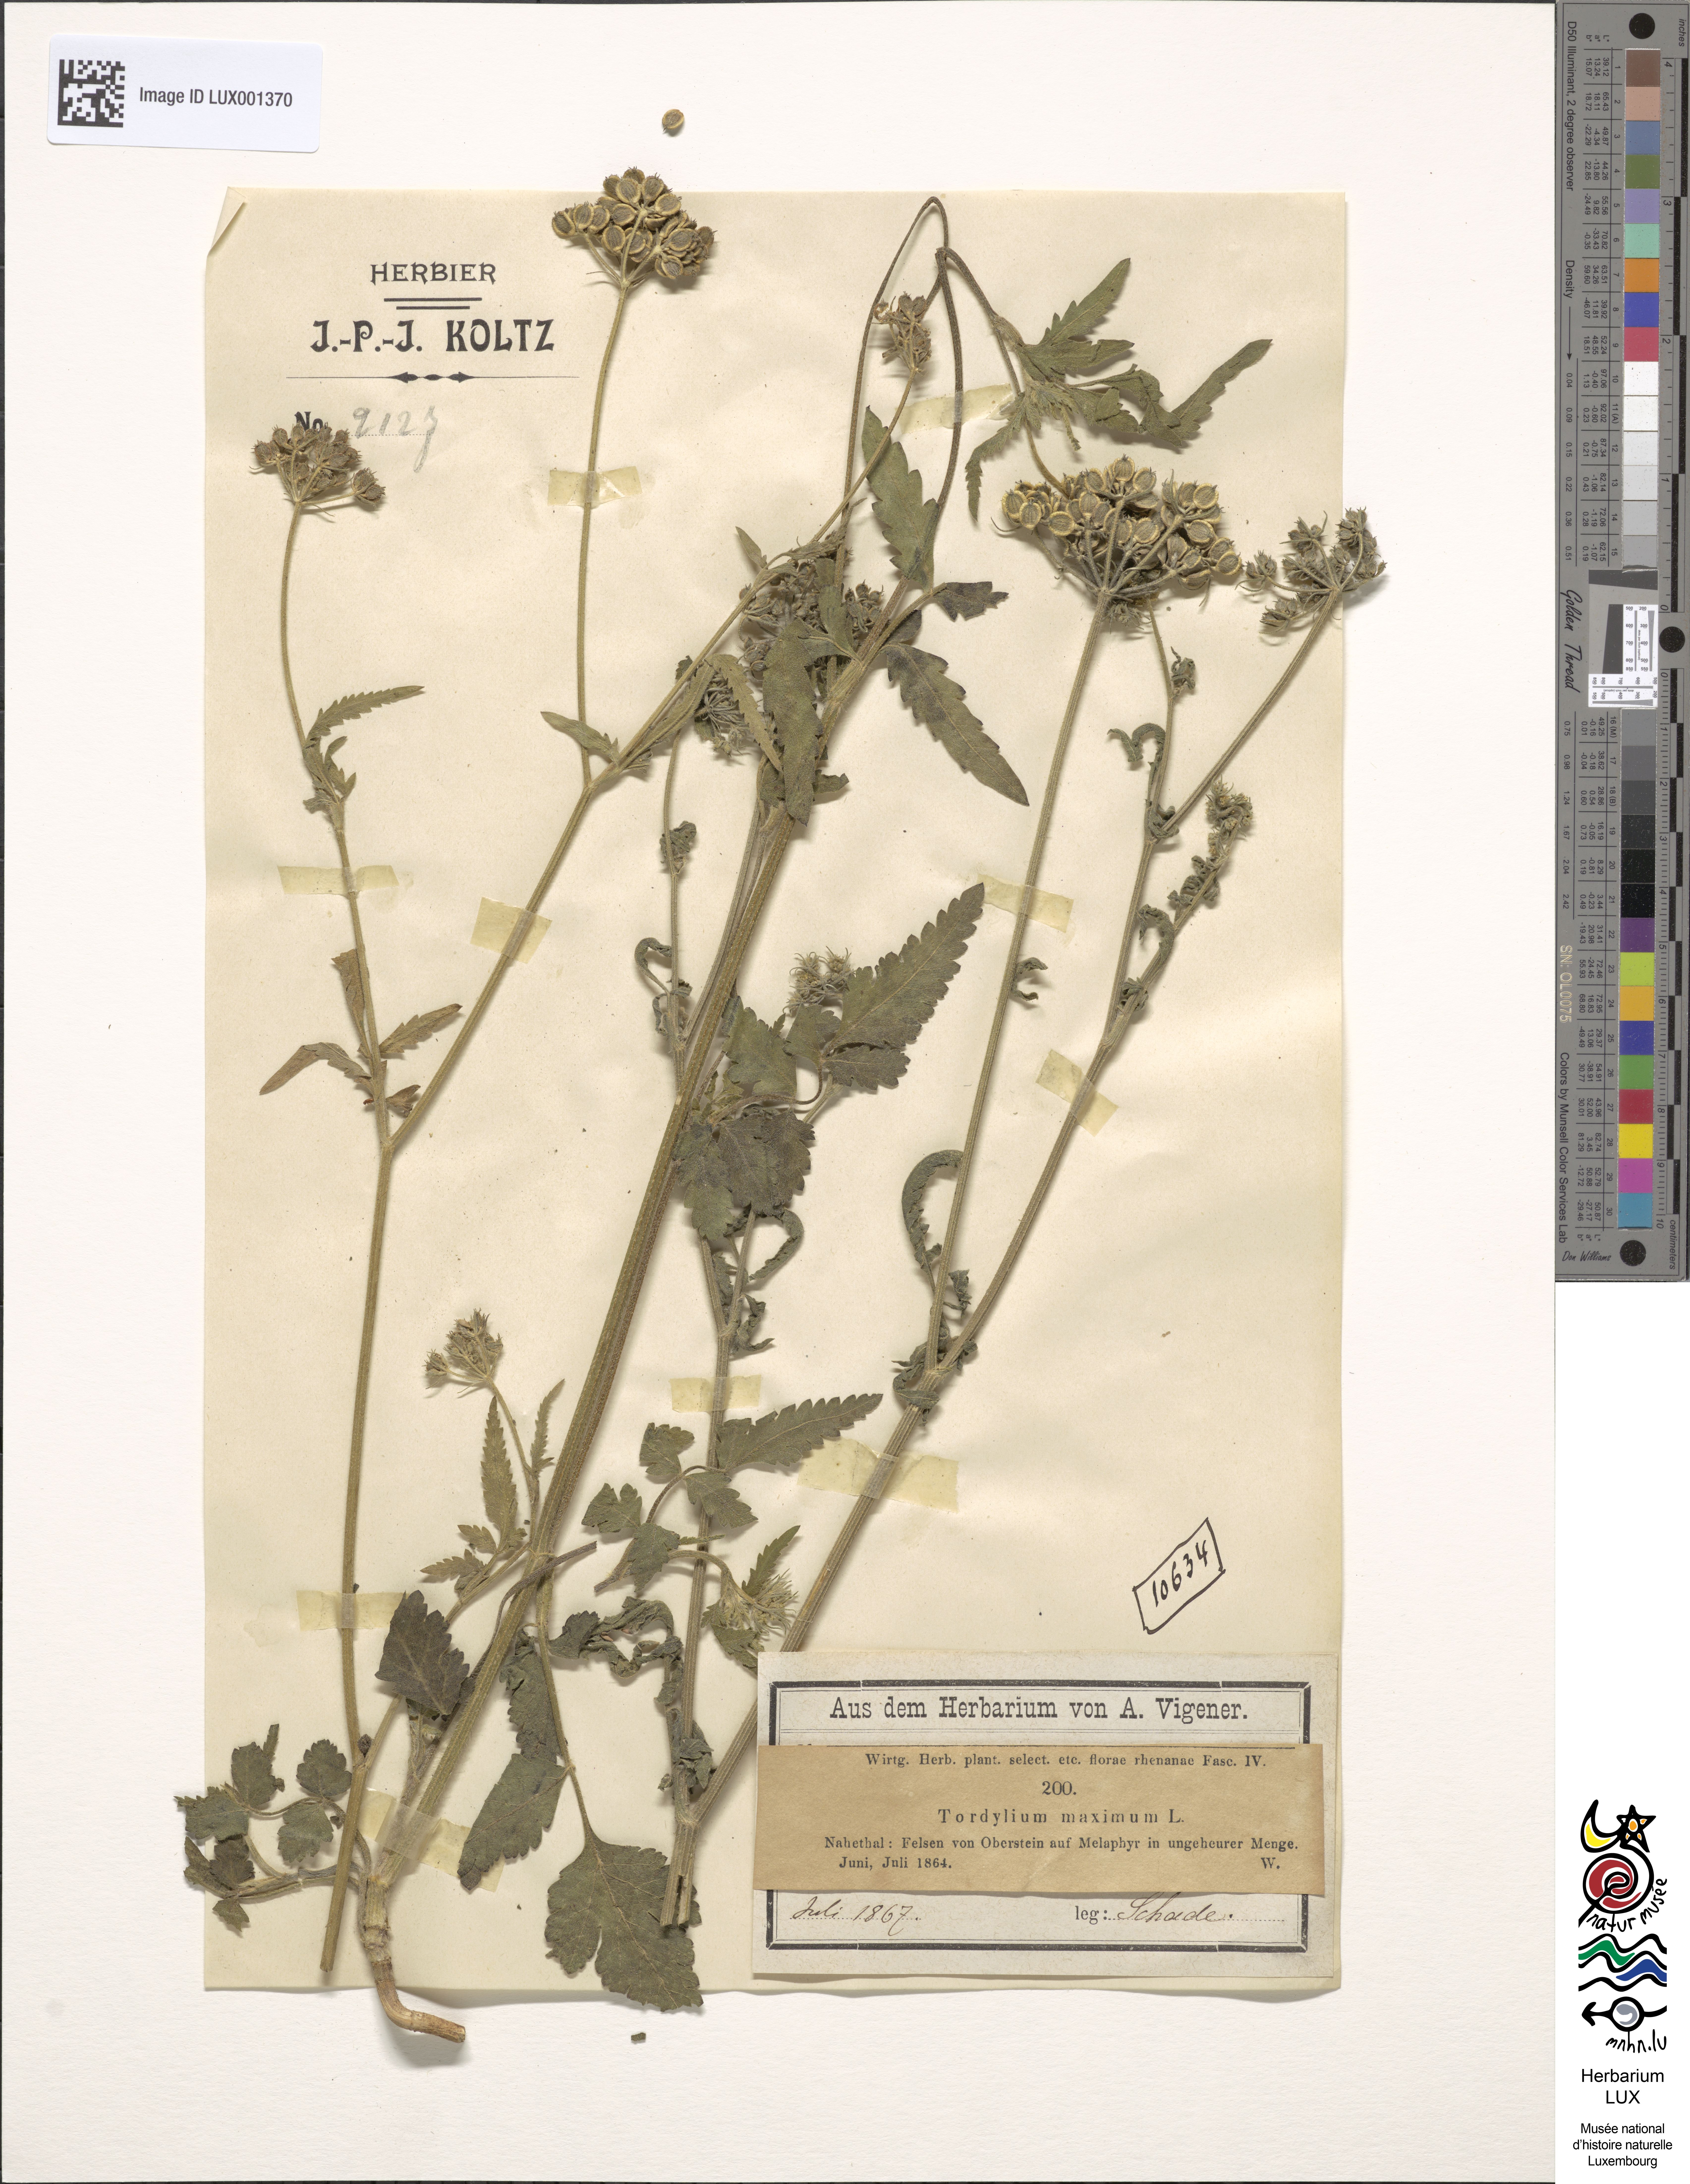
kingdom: Plantae
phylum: Tracheophyta
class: Magnoliopsida
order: Apiales
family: Apiaceae
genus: Tordylium
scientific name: Tordylium maximum
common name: Hartwort
